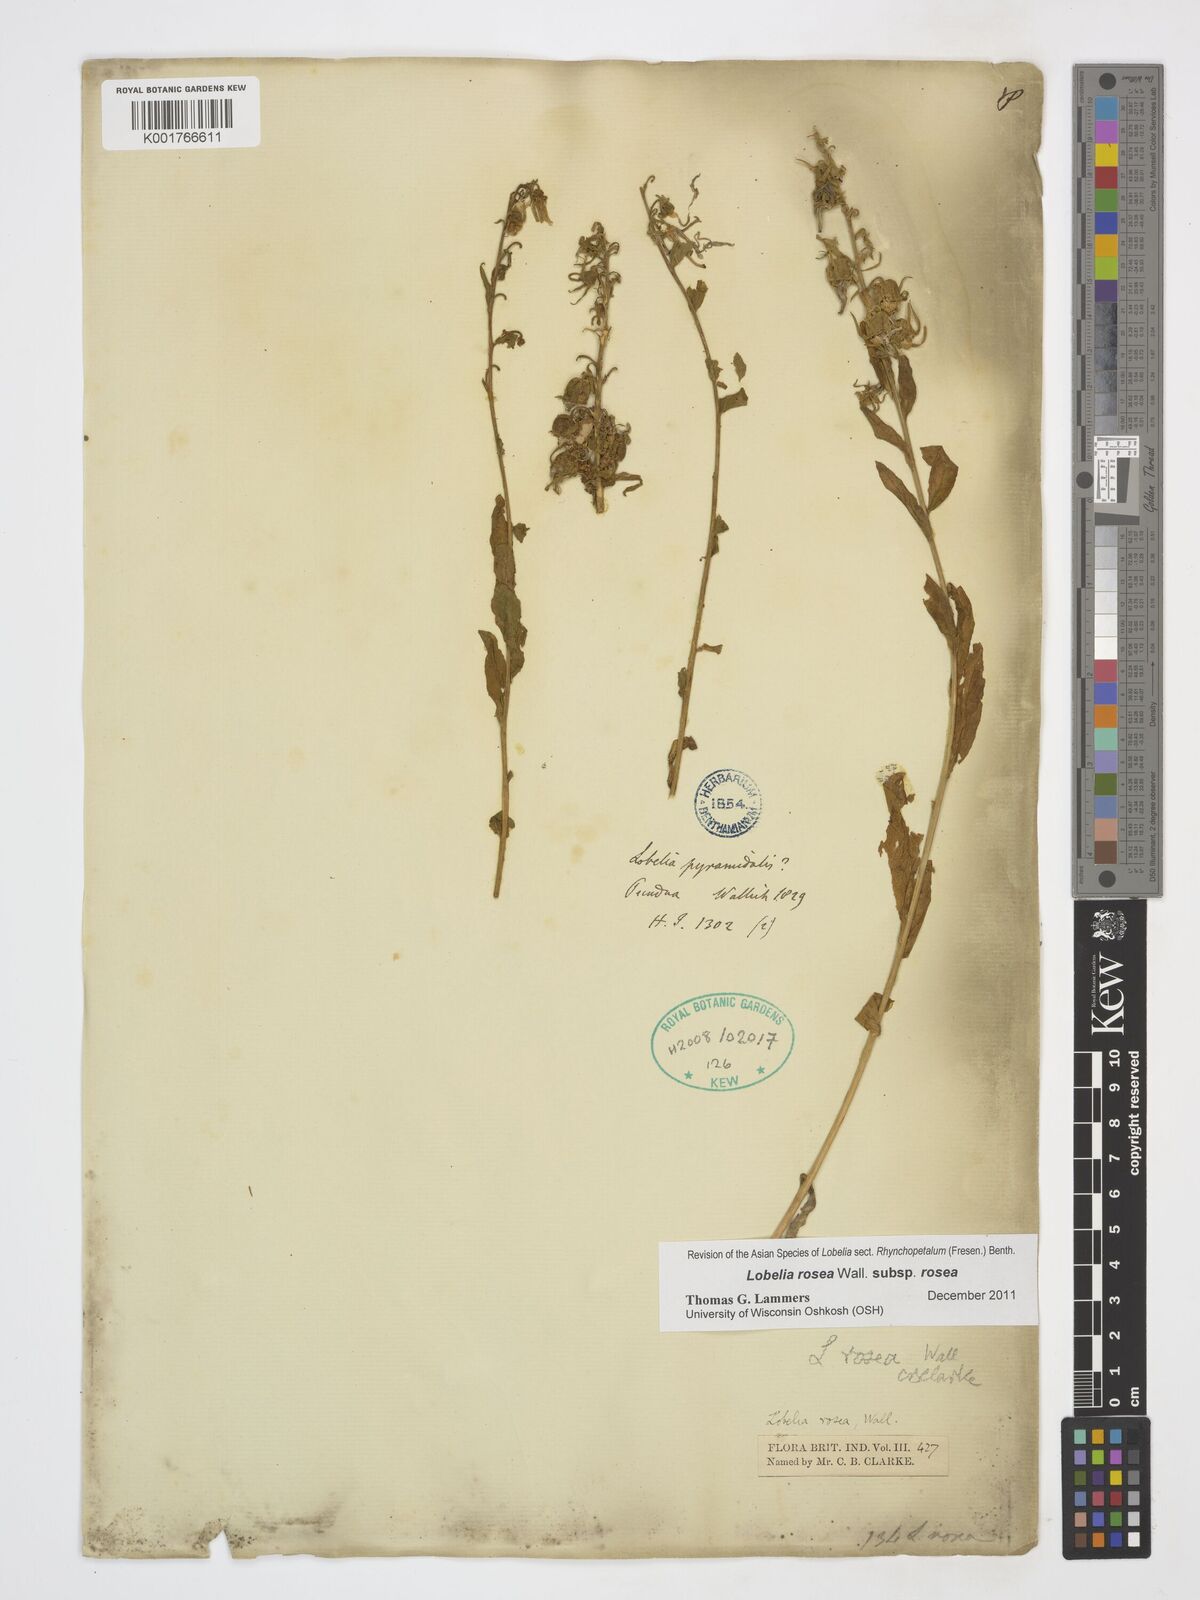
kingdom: Plantae
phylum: Tracheophyta
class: Magnoliopsida
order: Asterales
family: Campanulaceae
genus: Lobelia
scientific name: Lobelia rosea
